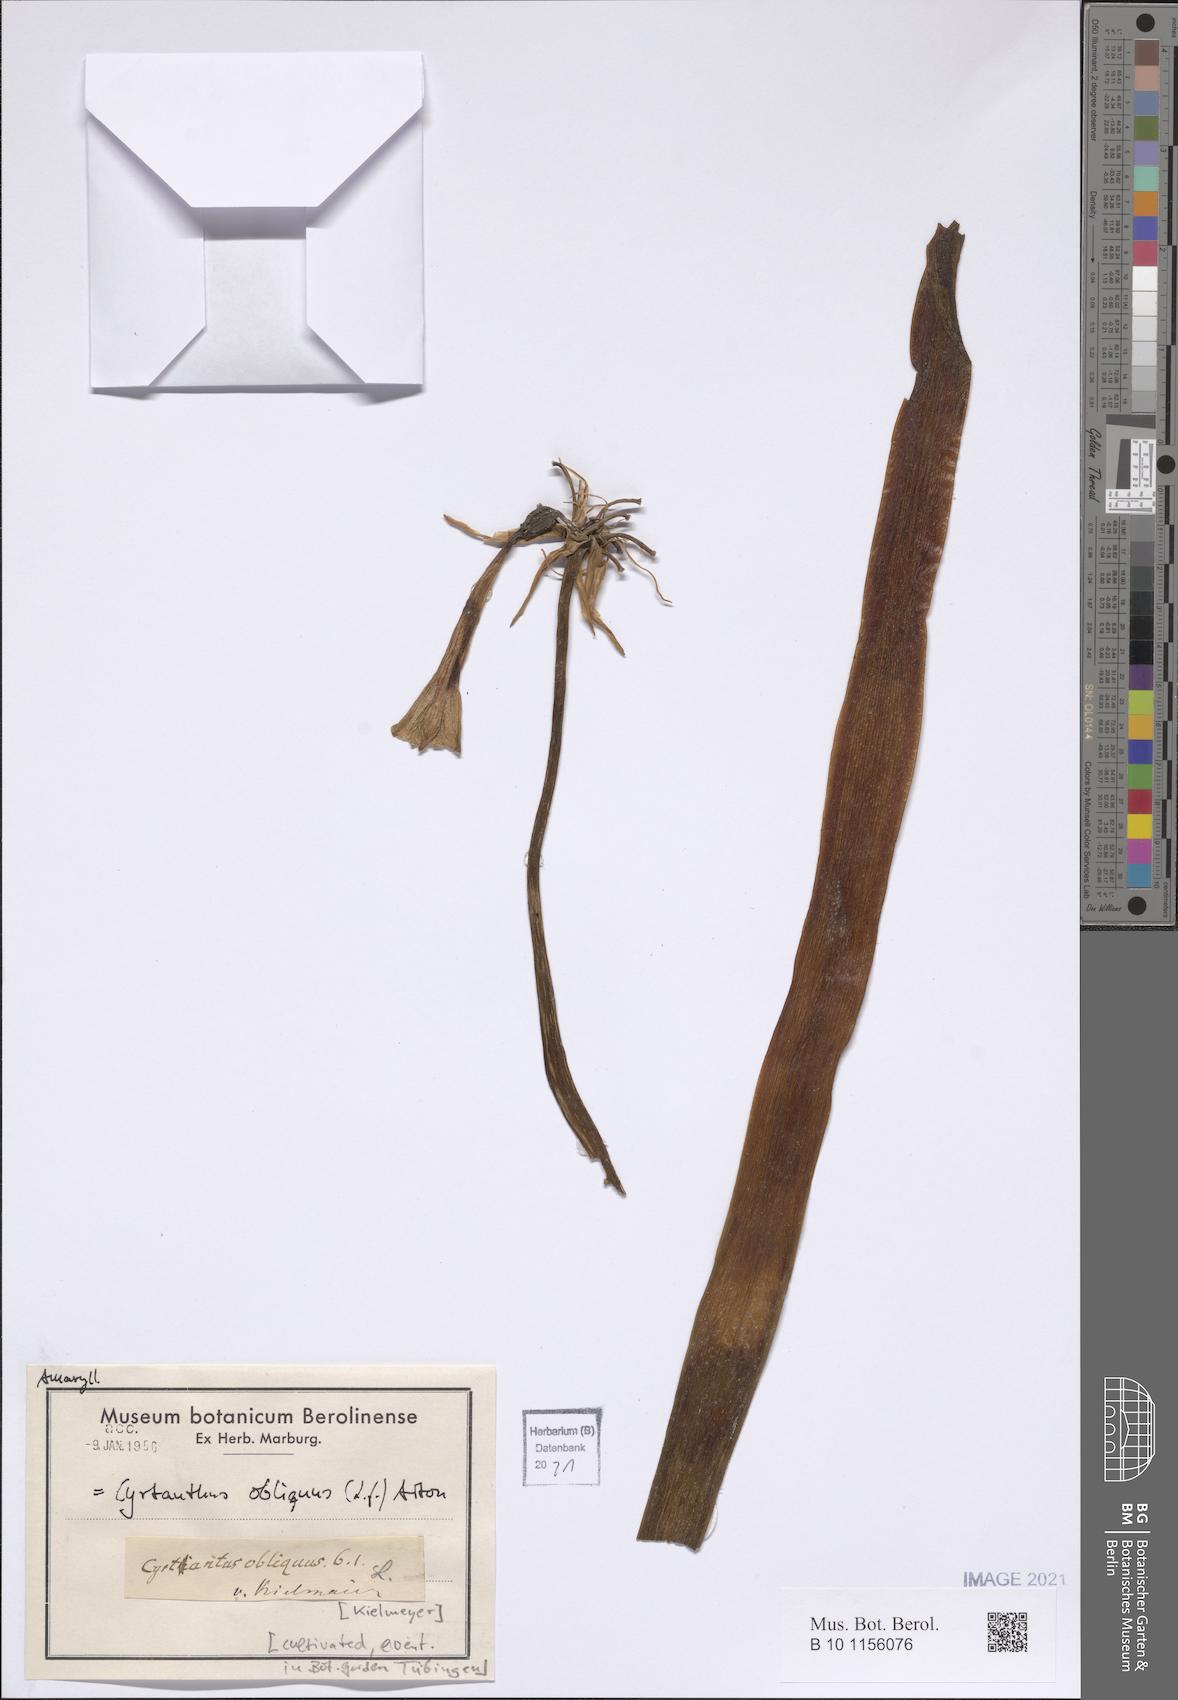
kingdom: Plantae
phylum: Tracheophyta
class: Liliopsida
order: Asparagales
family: Amaryllidaceae
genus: Cyrtanthus
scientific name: Cyrtanthus obliquus
